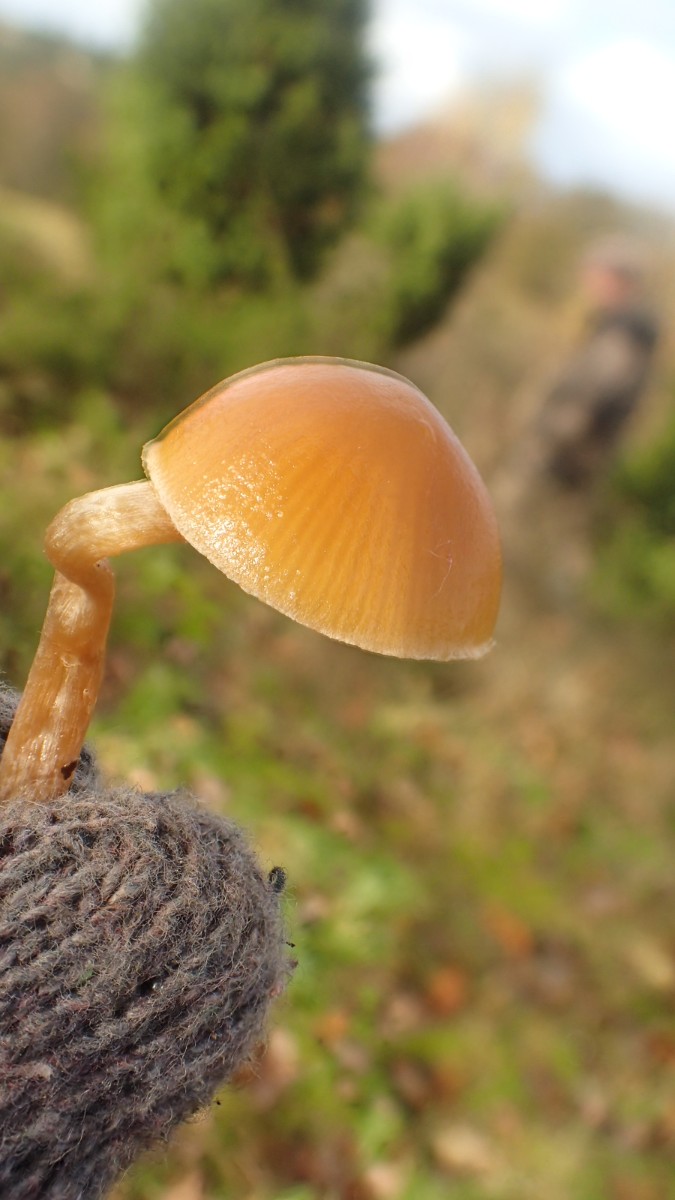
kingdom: Fungi
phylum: Basidiomycota
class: Agaricomycetes
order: Agaricales
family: Hymenogastraceae
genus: Galerina
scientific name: Galerina pumila
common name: honninggul hjelmhat
